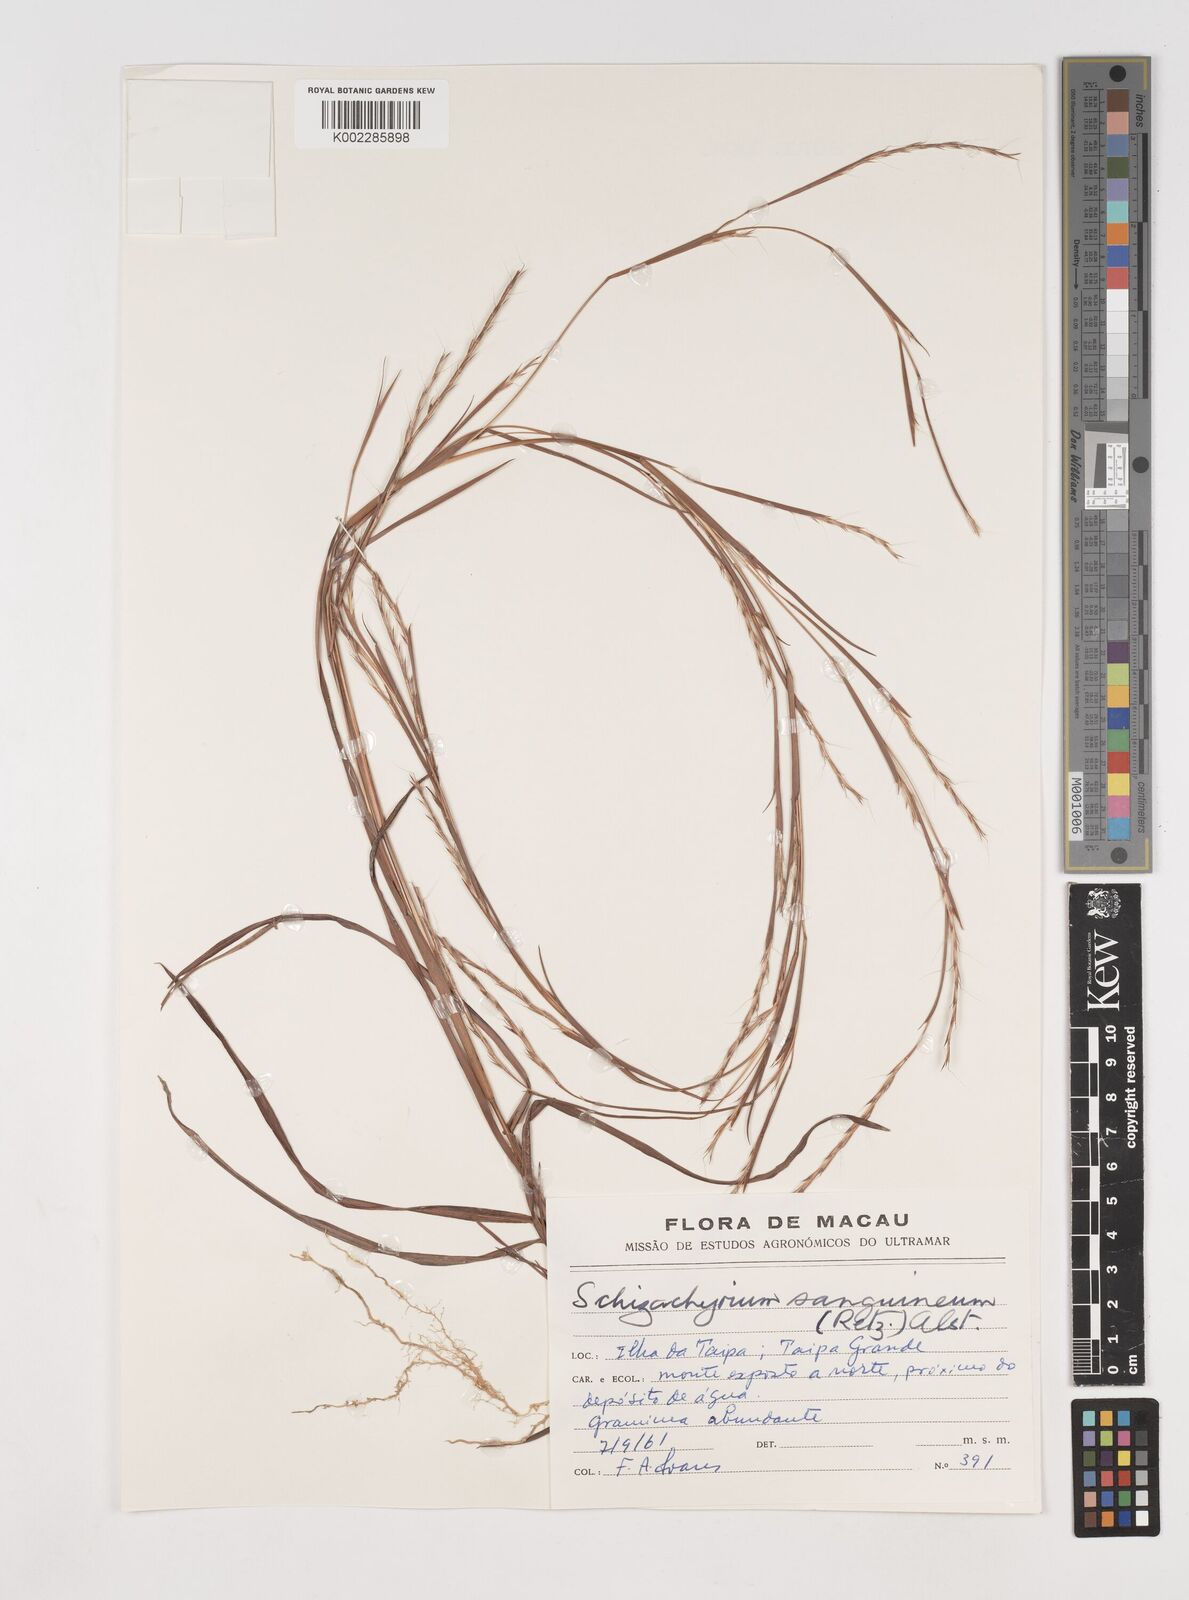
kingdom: Plantae
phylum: Tracheophyta
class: Liliopsida
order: Poales
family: Poaceae
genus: Schizachyrium
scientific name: Schizachyrium sanguineum
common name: Crimson bluestem
